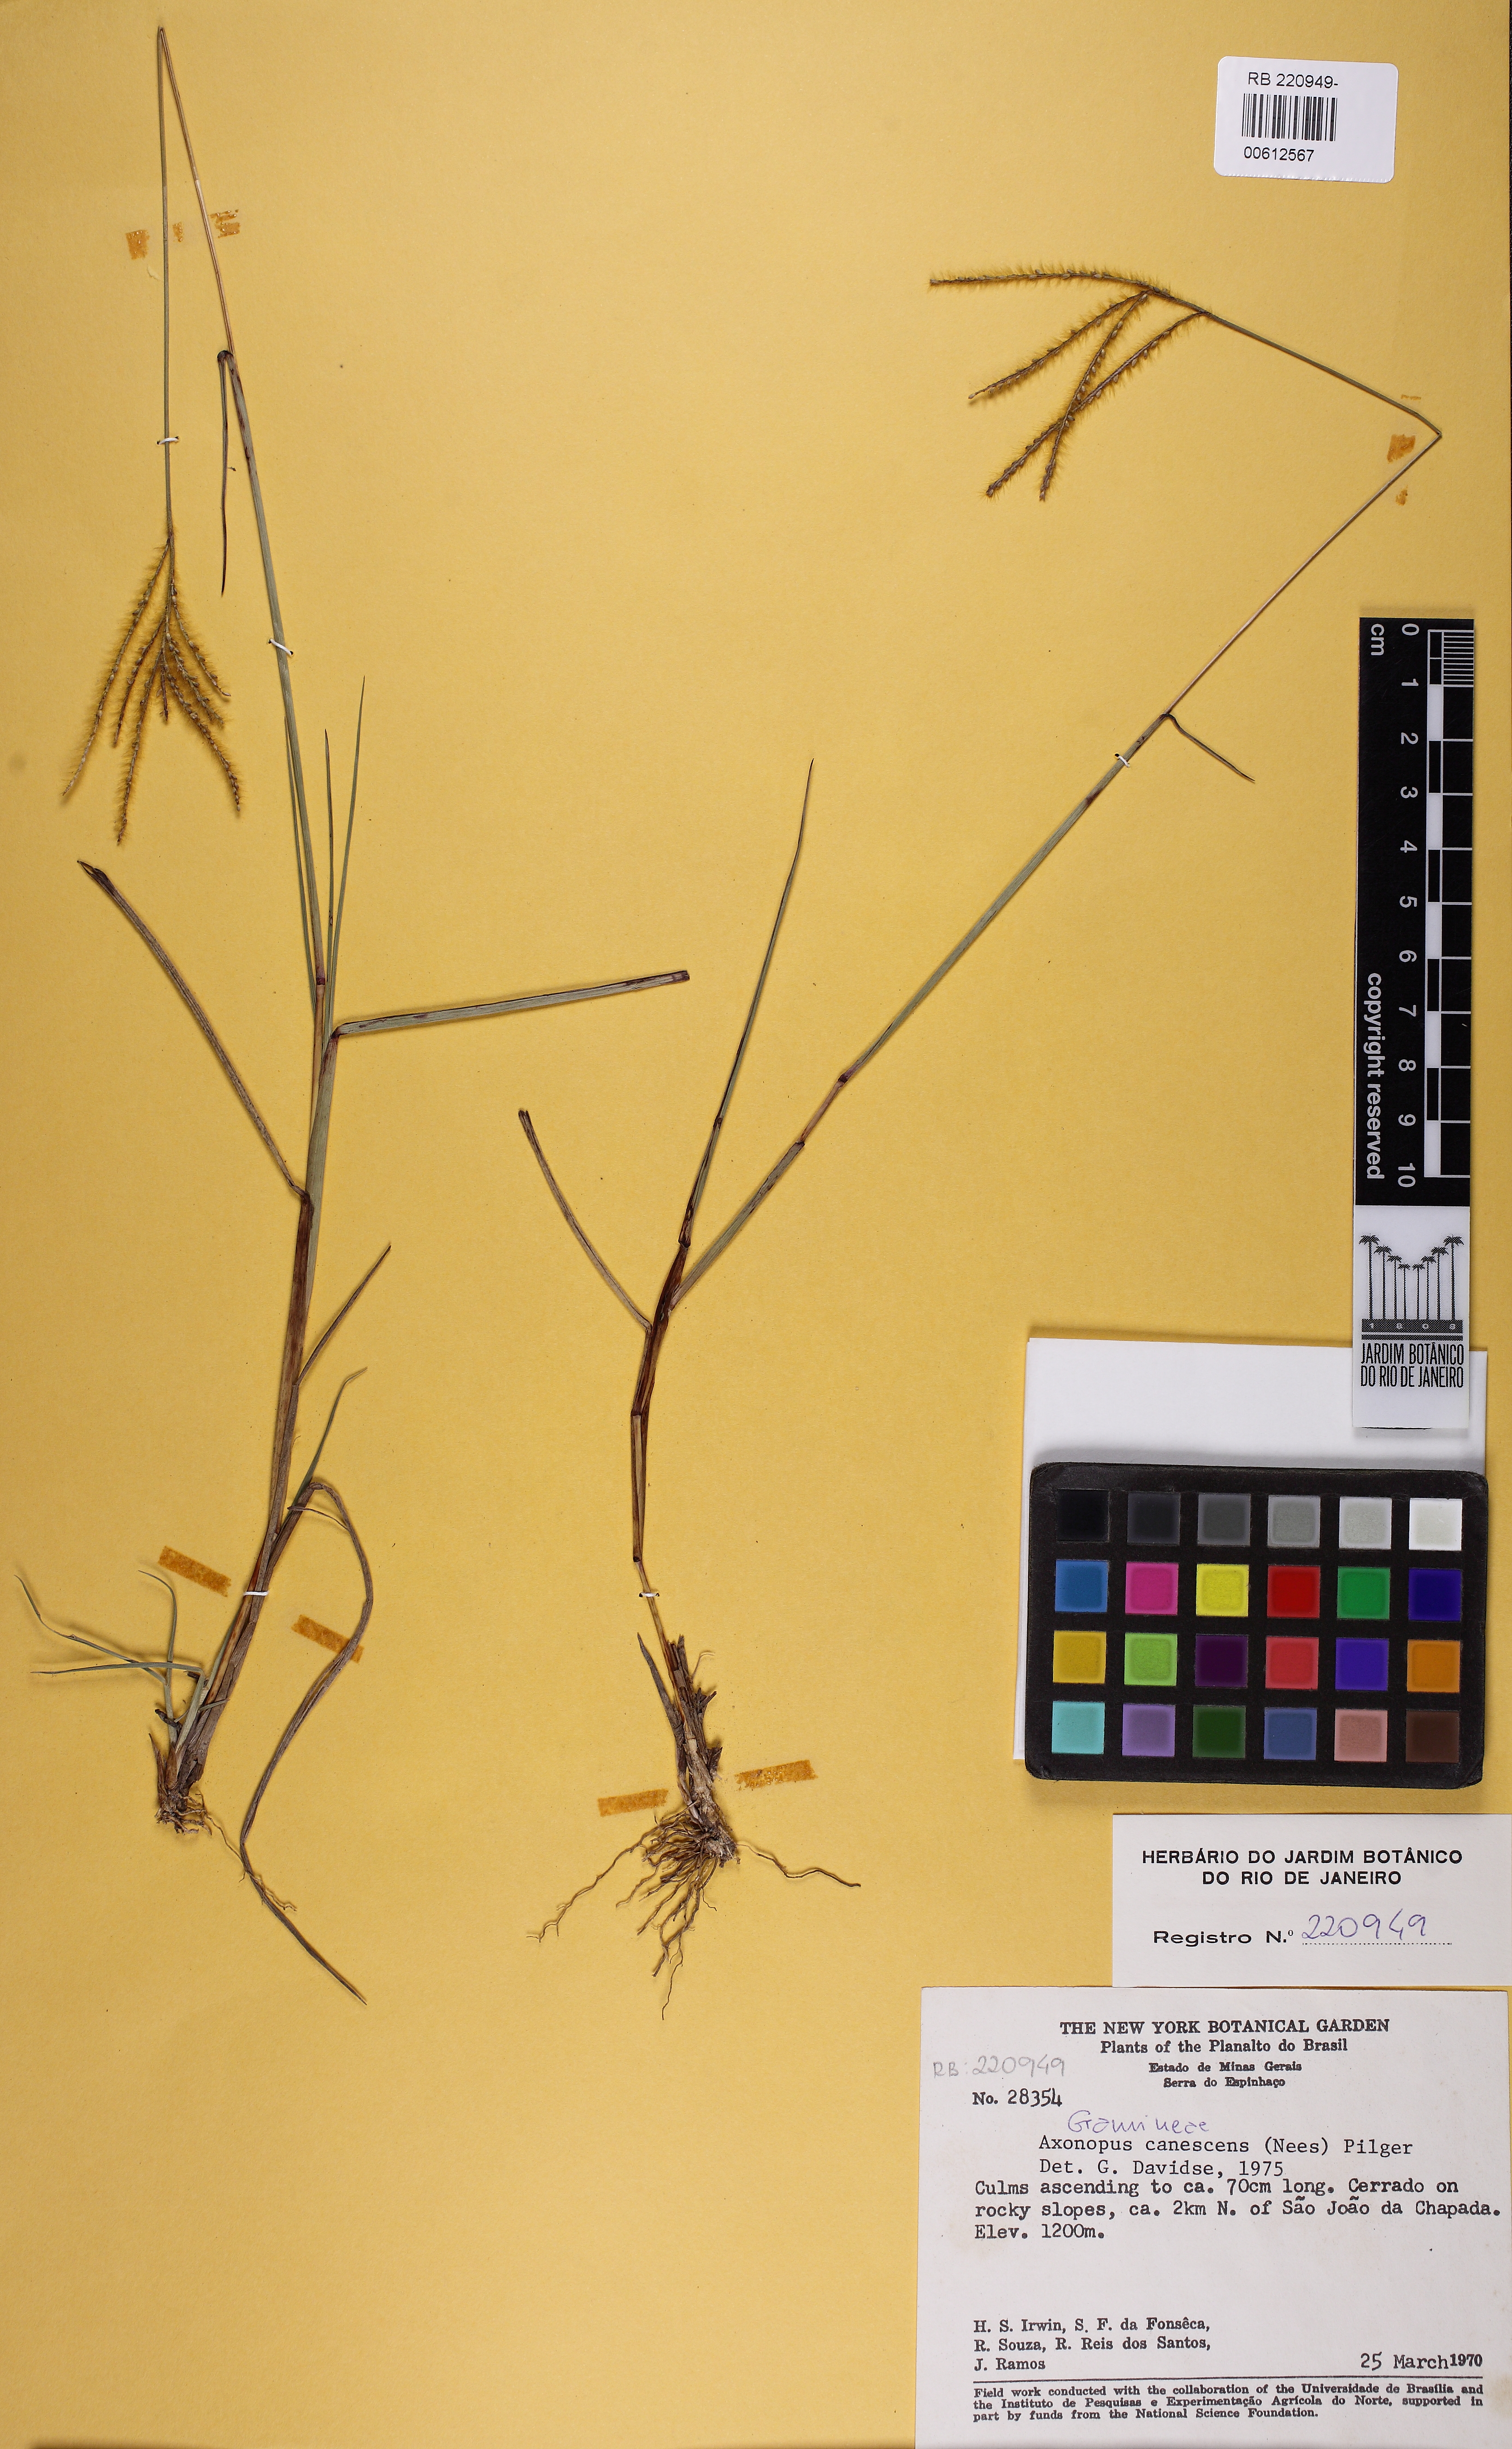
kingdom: Plantae
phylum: Tracheophyta
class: Liliopsida
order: Poales
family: Poaceae
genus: Axonopus
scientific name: Axonopus aureus
